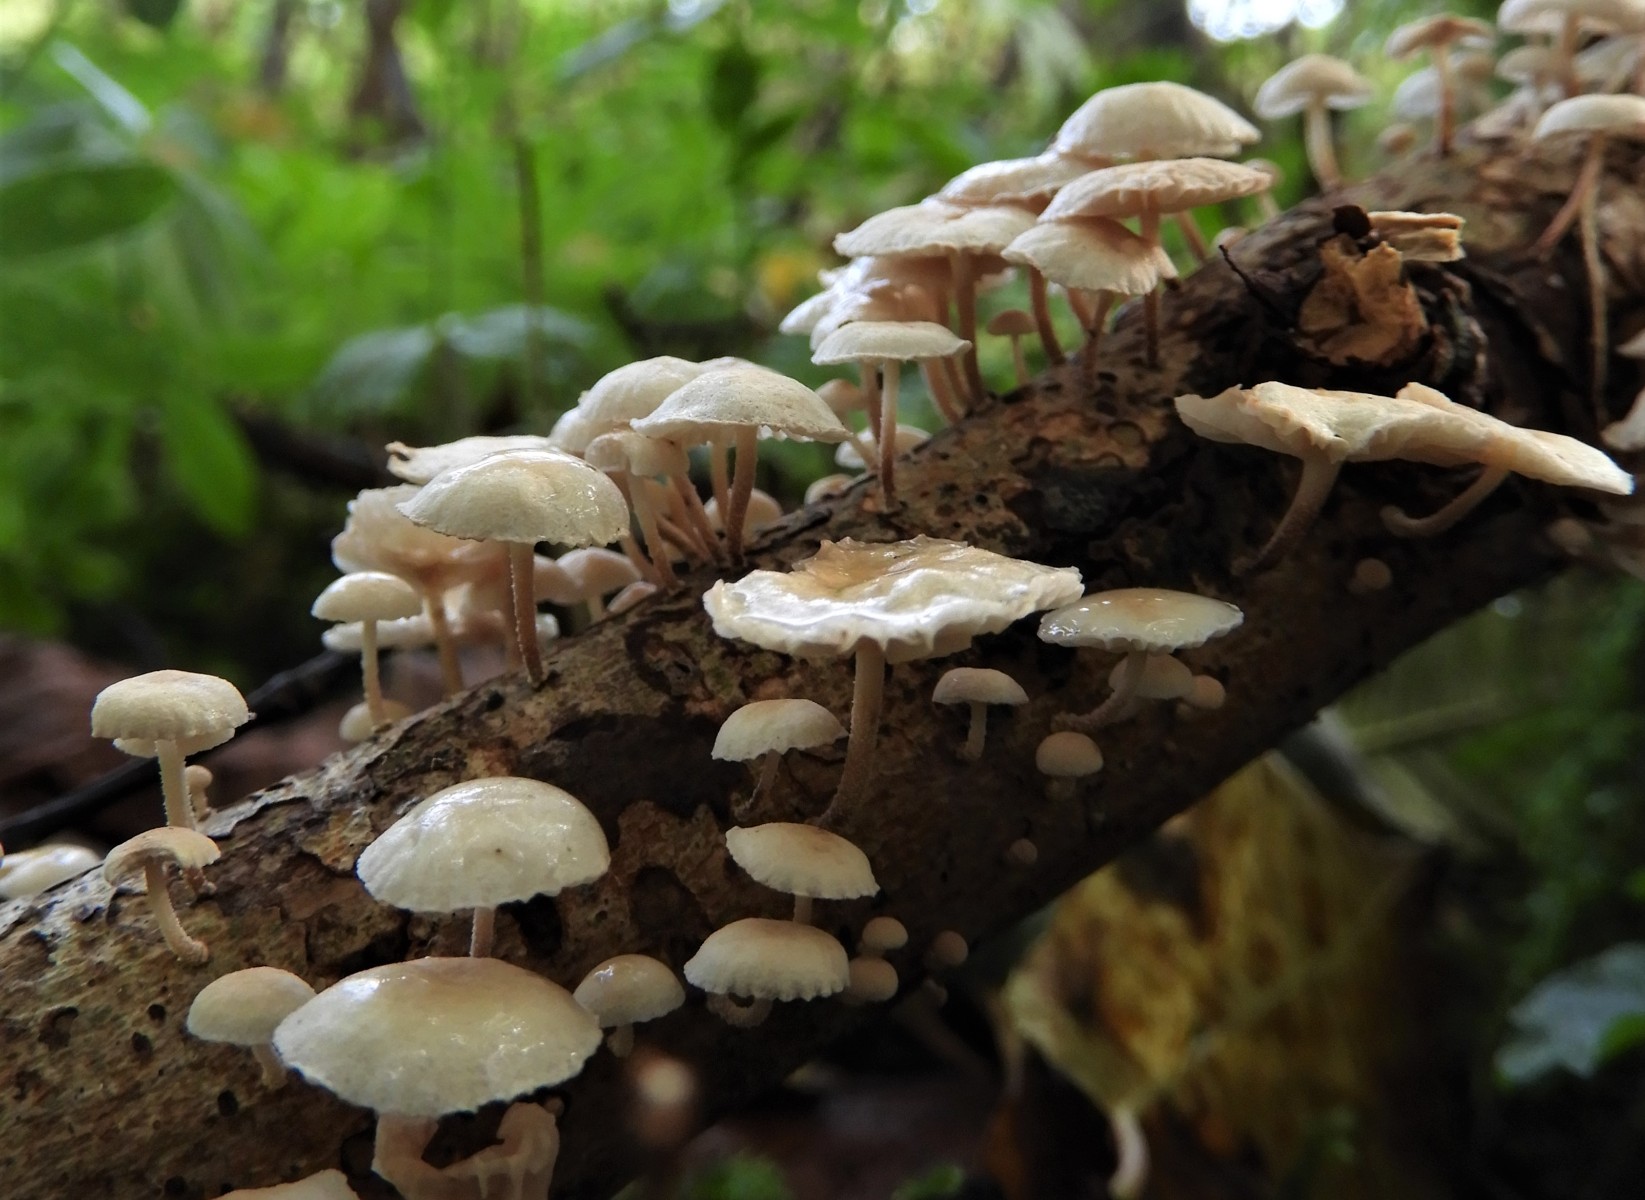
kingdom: Fungi
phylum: Basidiomycota
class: Agaricomycetes
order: Agaricales
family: Omphalotaceae
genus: Collybiopsis
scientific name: Collybiopsis ramealis
